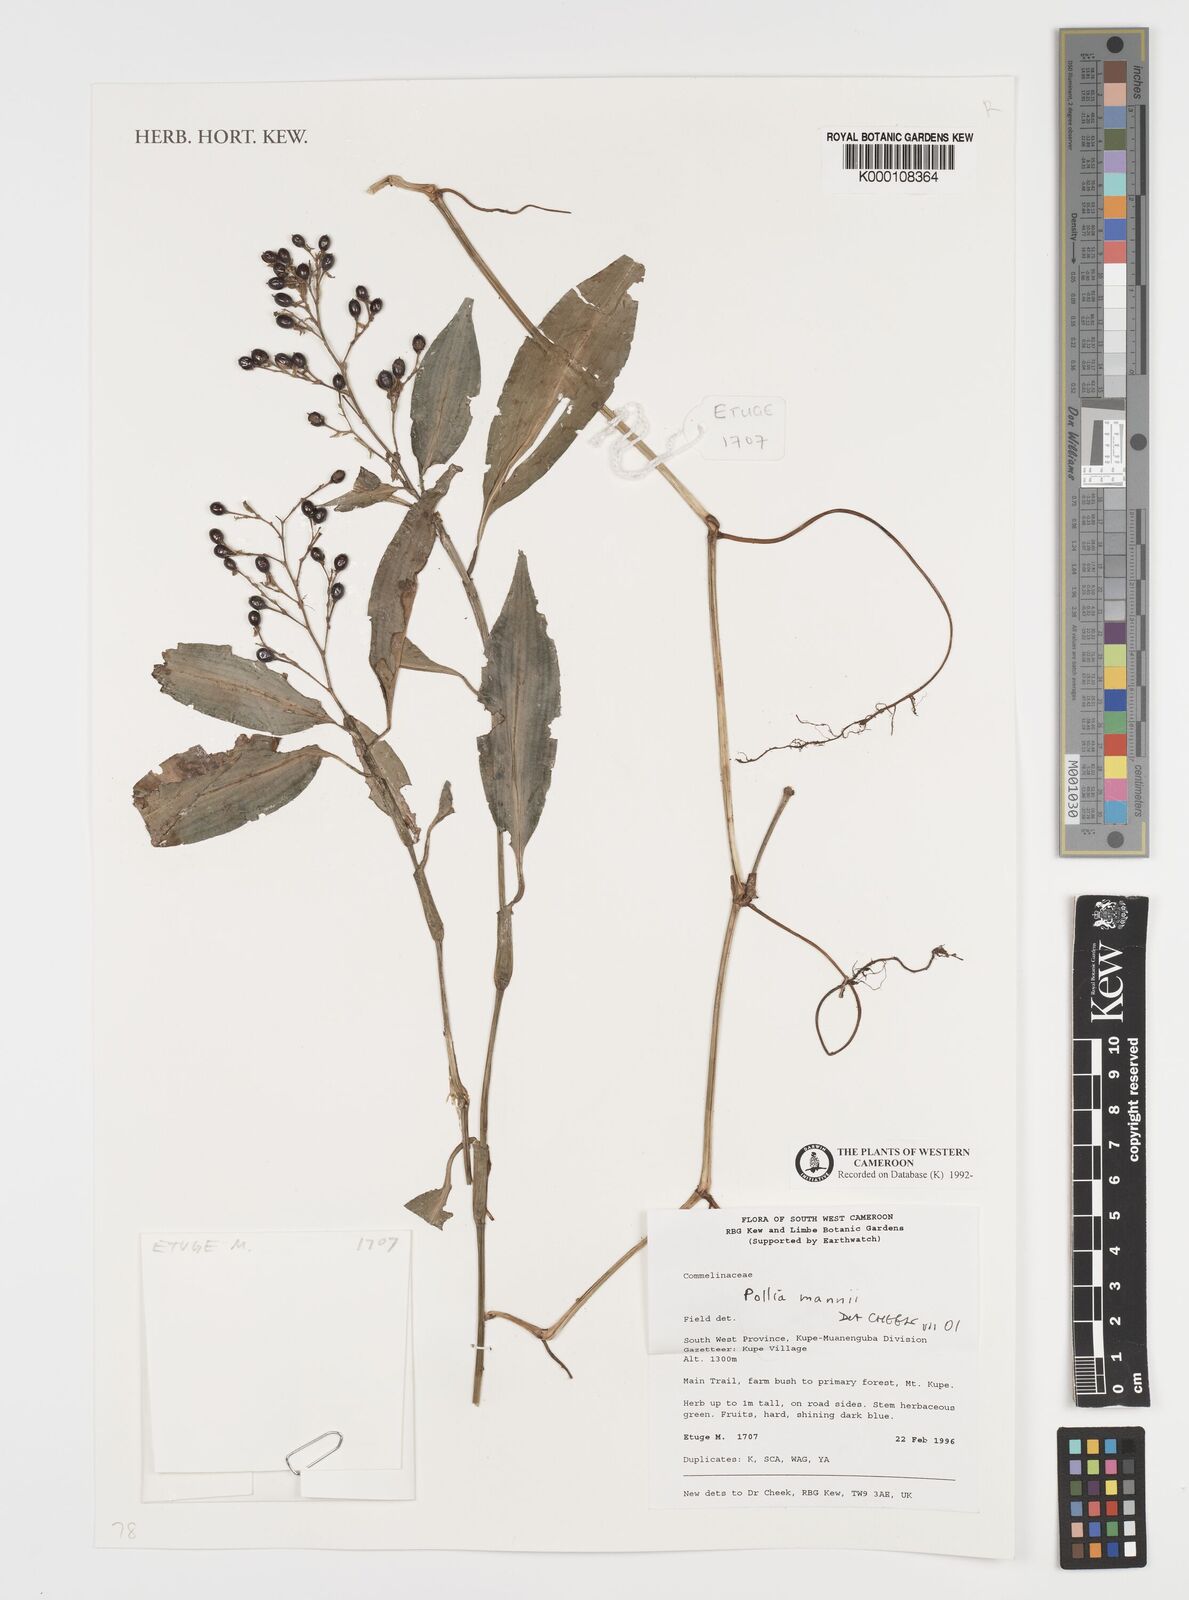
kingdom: Plantae
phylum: Tracheophyta
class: Liliopsida
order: Commelinales
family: Commelinaceae
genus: Pollia
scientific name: Pollia mannii
